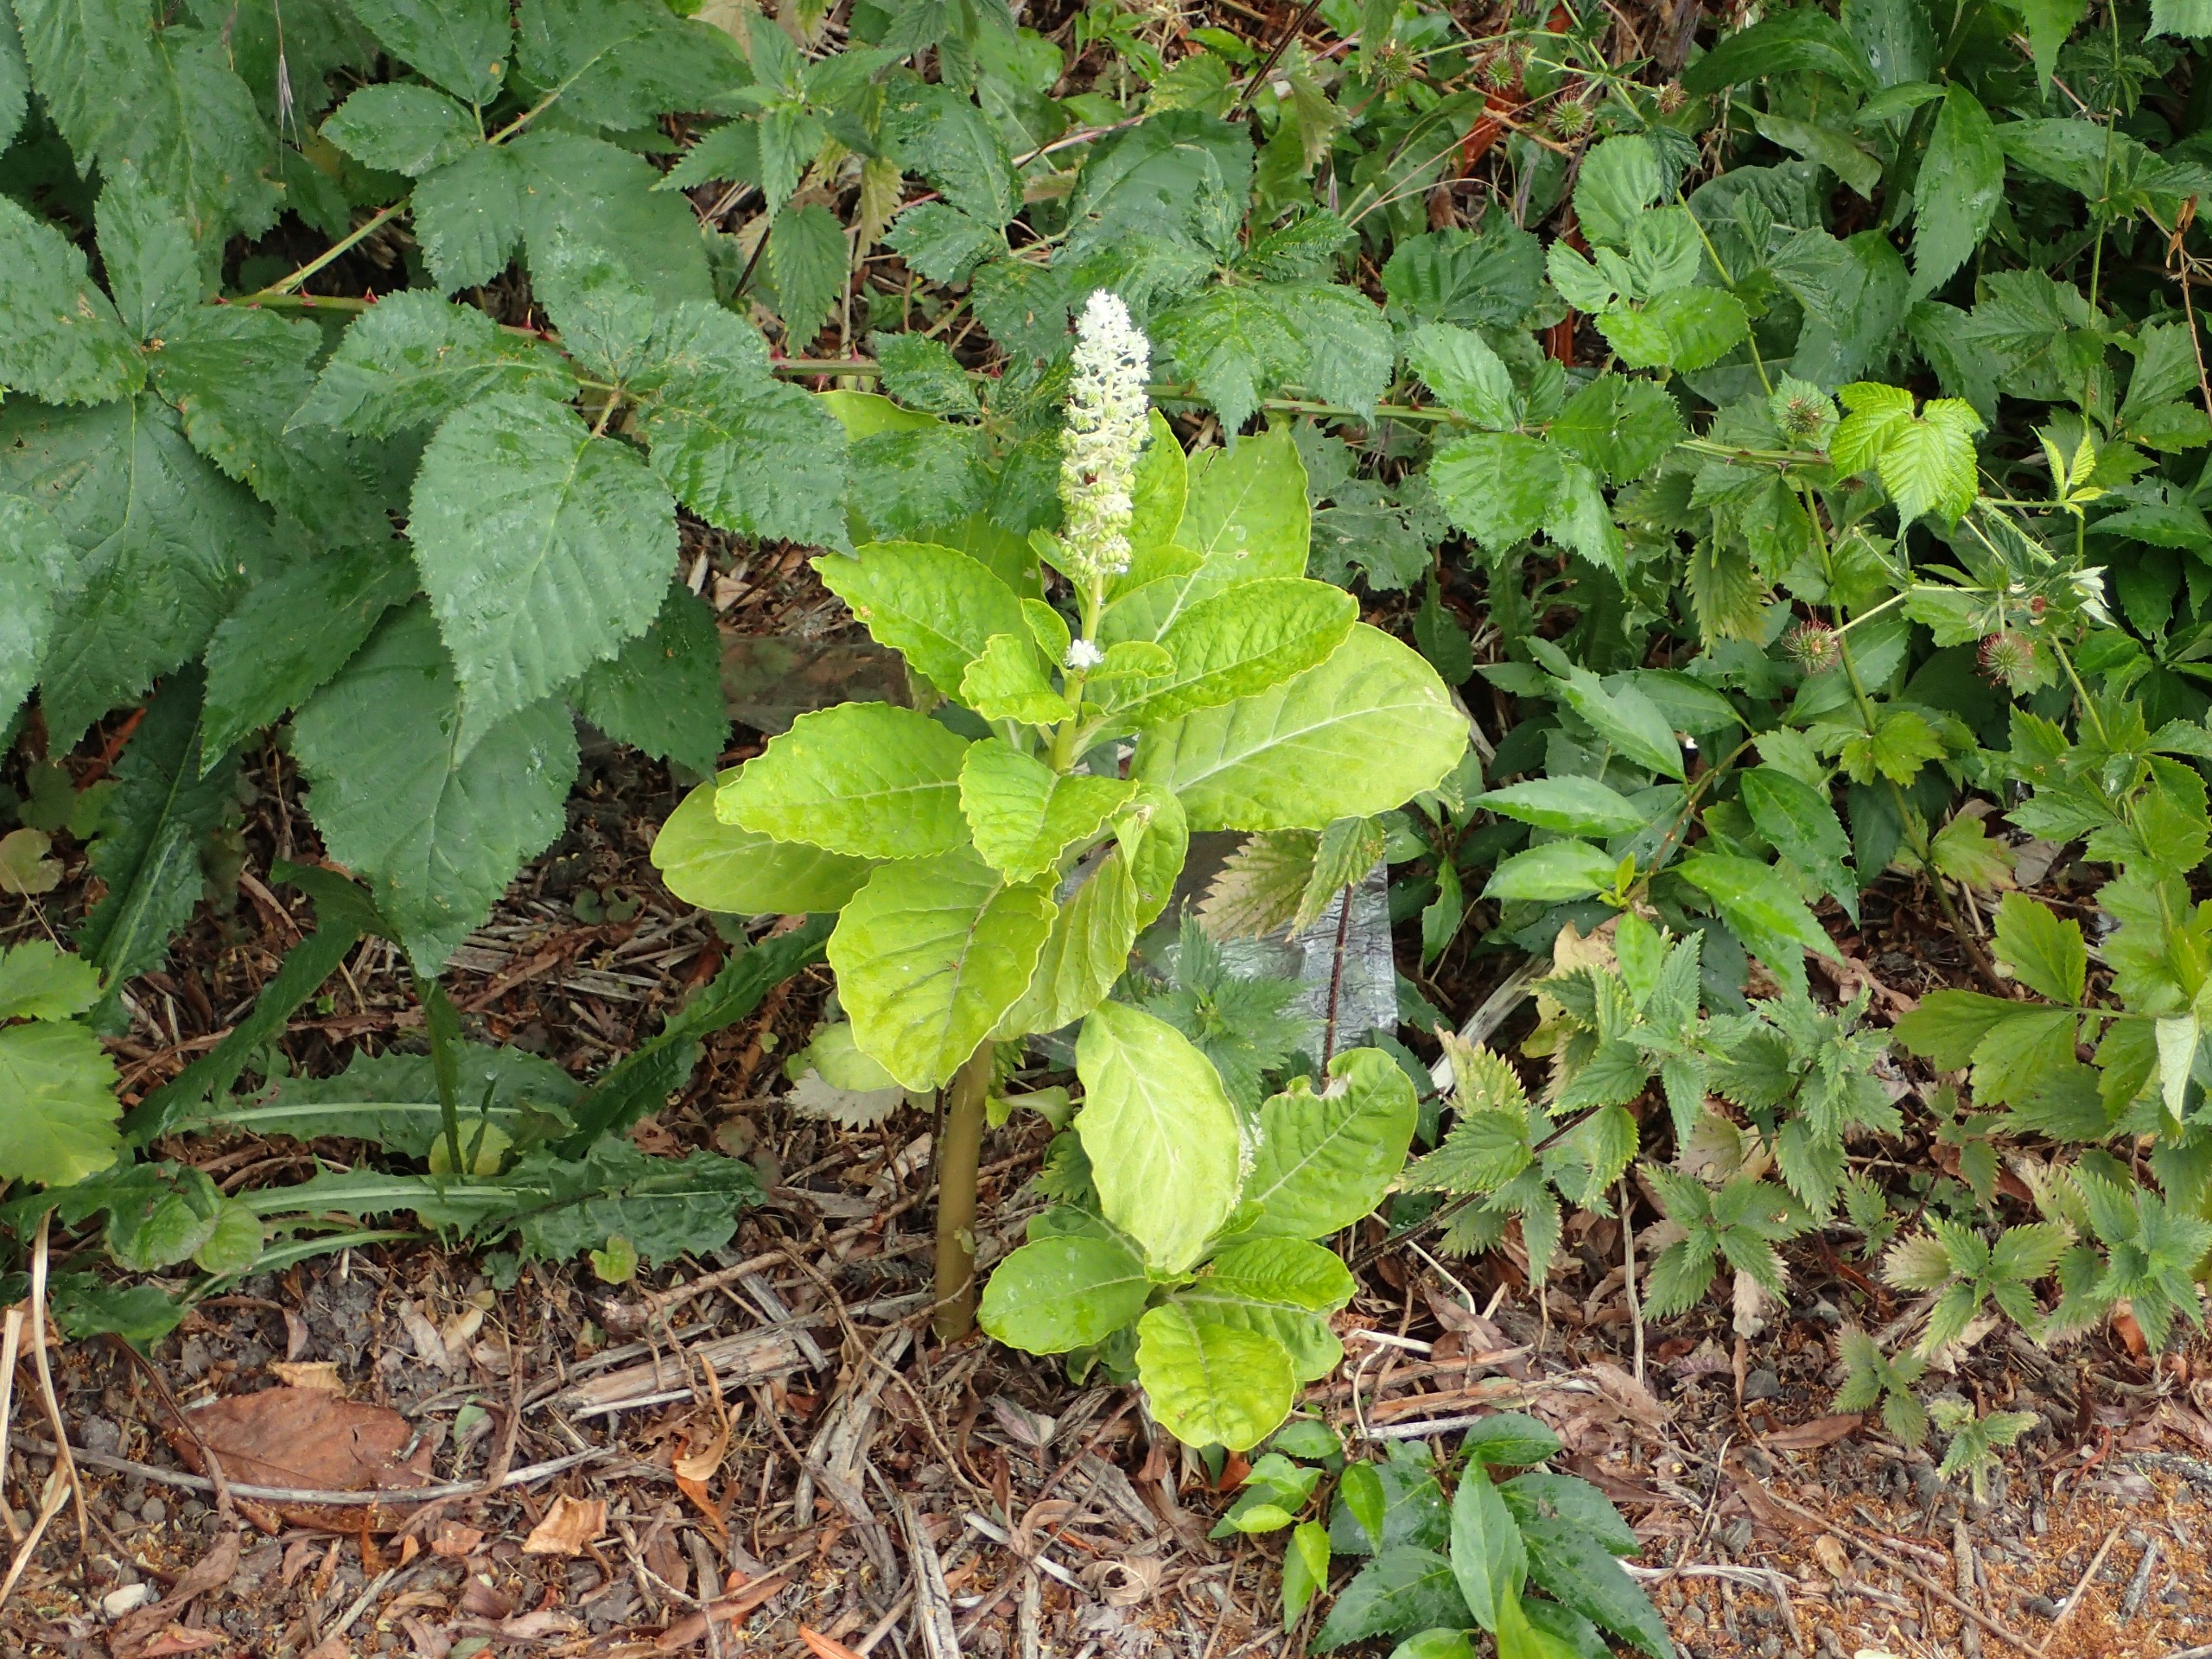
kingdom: Plantae
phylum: Tracheophyta
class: Magnoliopsida
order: Caryophyllales
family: Phytolaccaceae
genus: Phytolacca
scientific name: Phytolacca acinosa
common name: Asiatisk kermesbær
